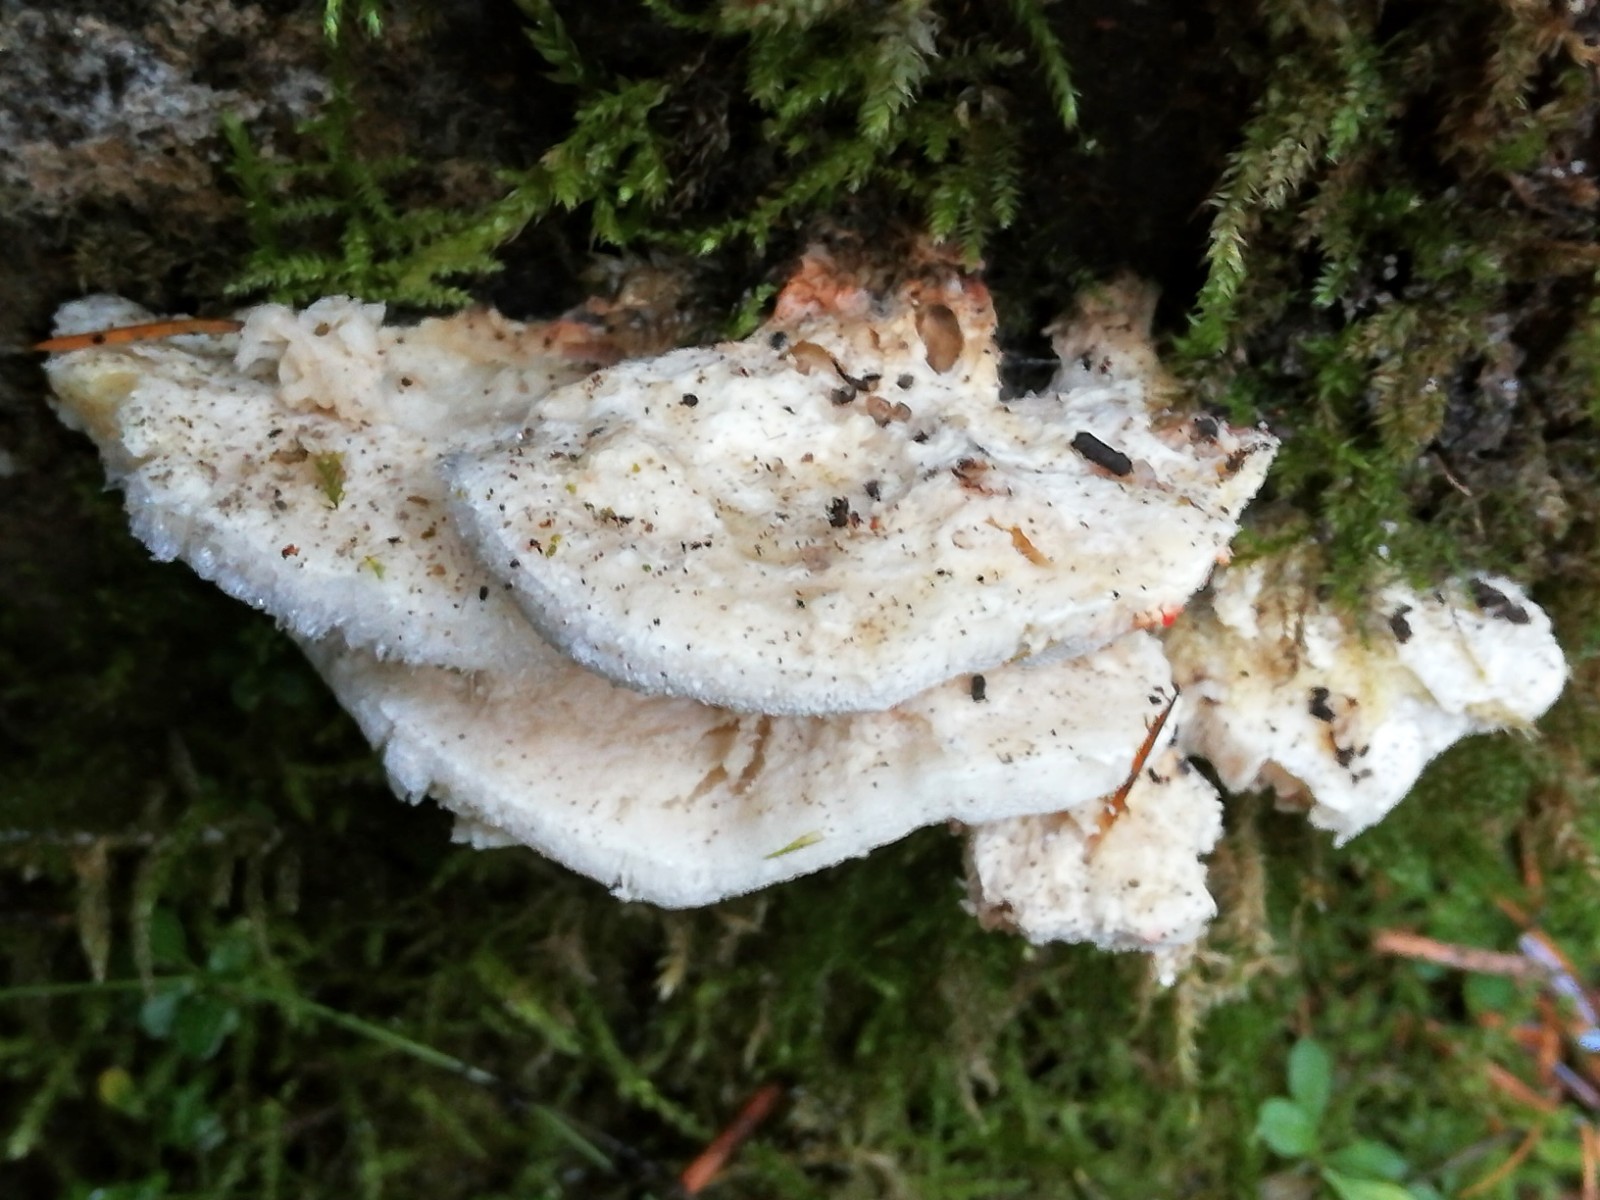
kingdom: Fungi
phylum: Basidiomycota
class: Agaricomycetes
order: Polyporales
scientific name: Polyporales
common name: poresvampordenen
